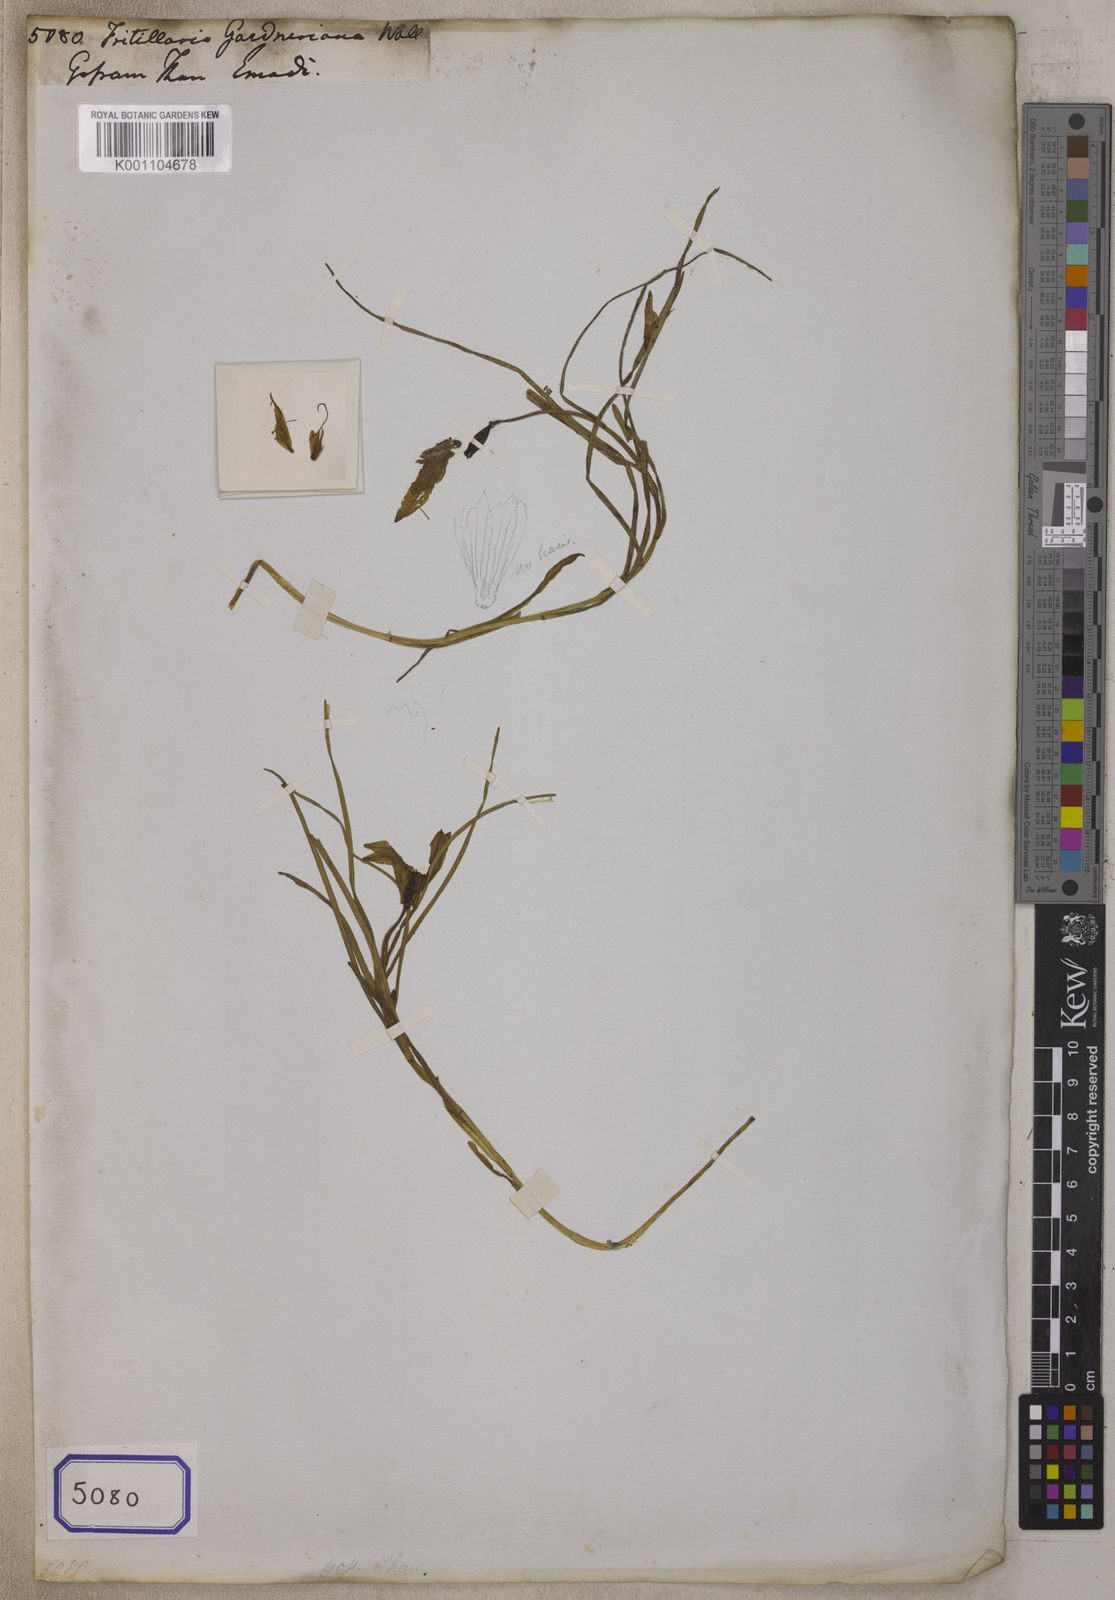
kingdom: Plantae
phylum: Tracheophyta
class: Liliopsida
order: Liliales
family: Liliaceae
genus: Fritillaria
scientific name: Fritillaria
